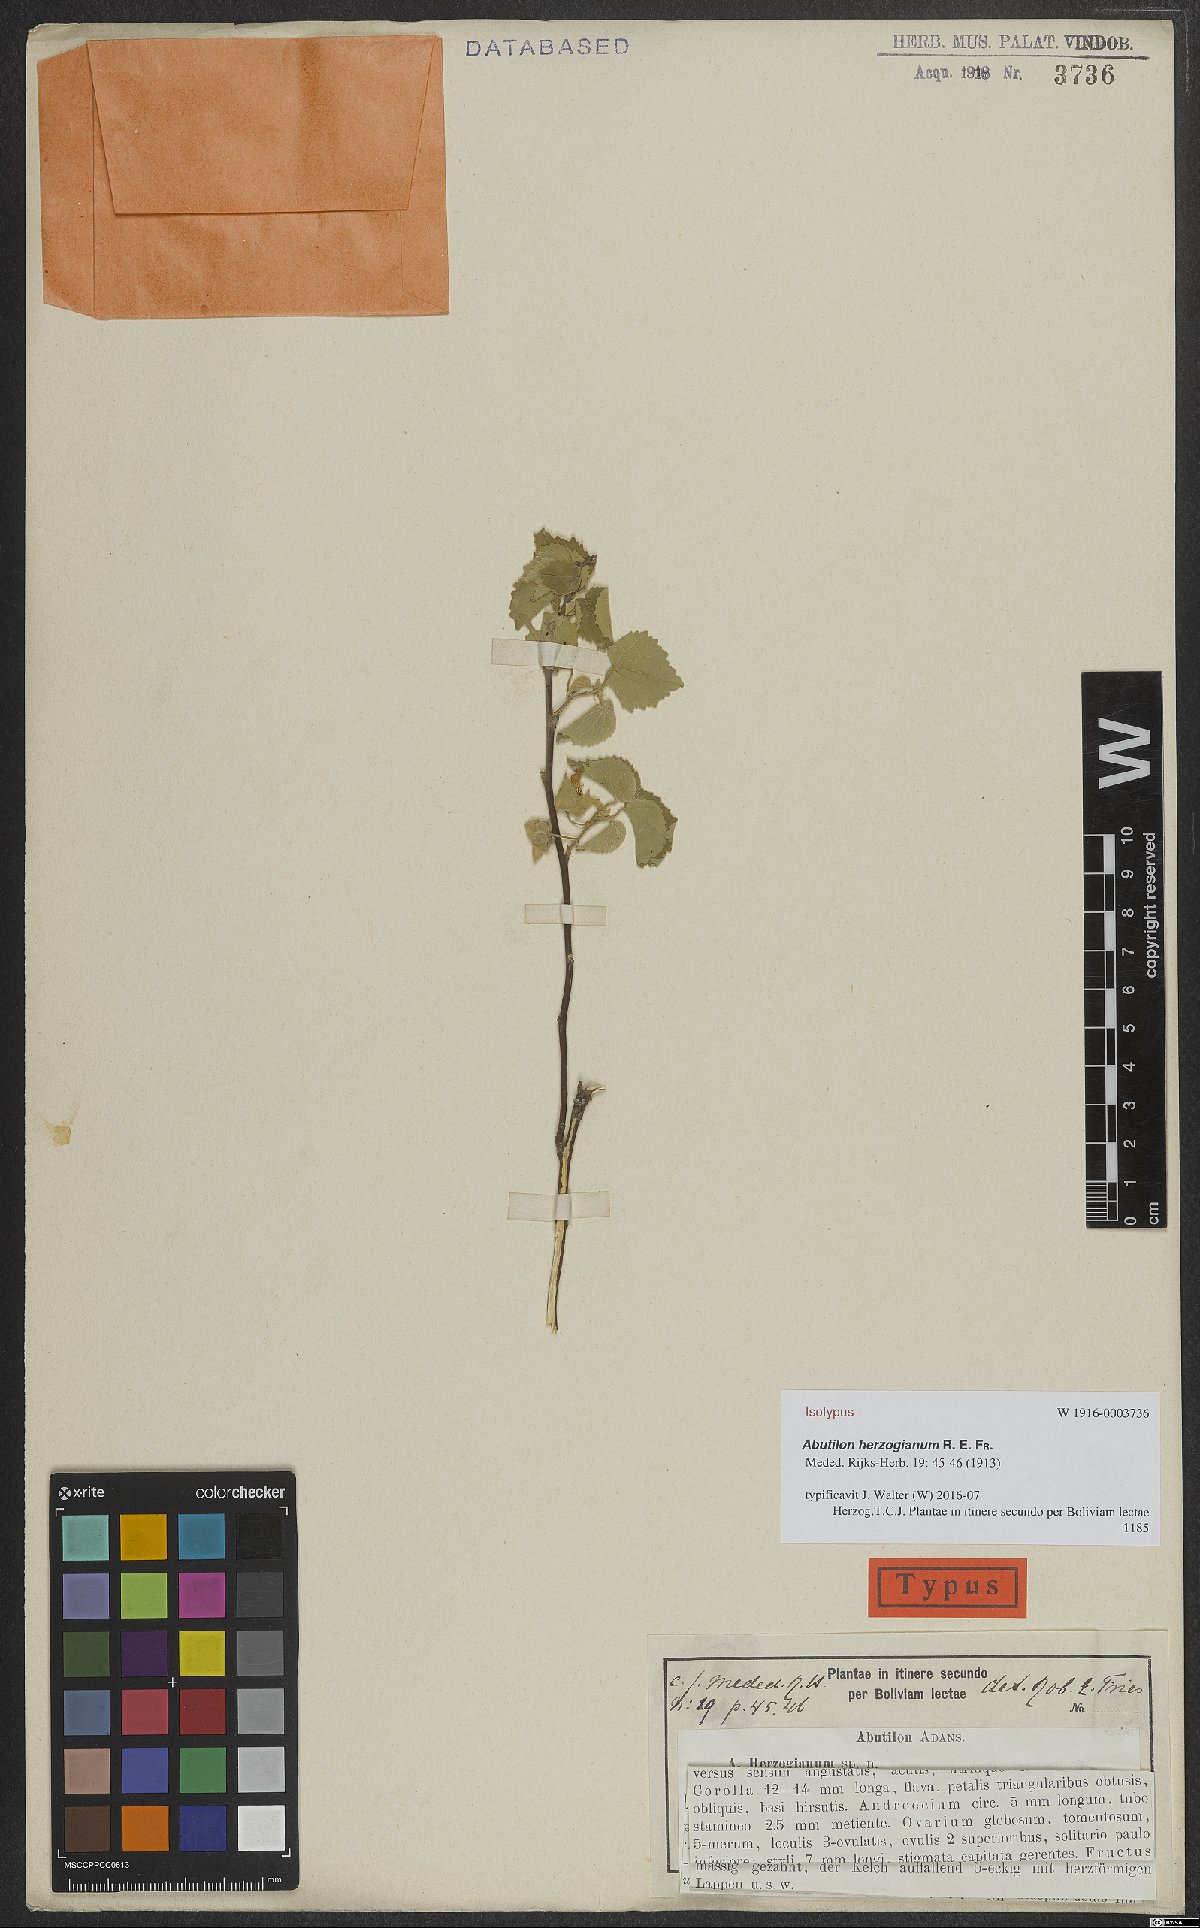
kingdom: Plantae
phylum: Tracheophyta
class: Magnoliopsida
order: Malvales
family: Malvaceae
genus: Abutilon
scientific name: Abutilon herzogianum
